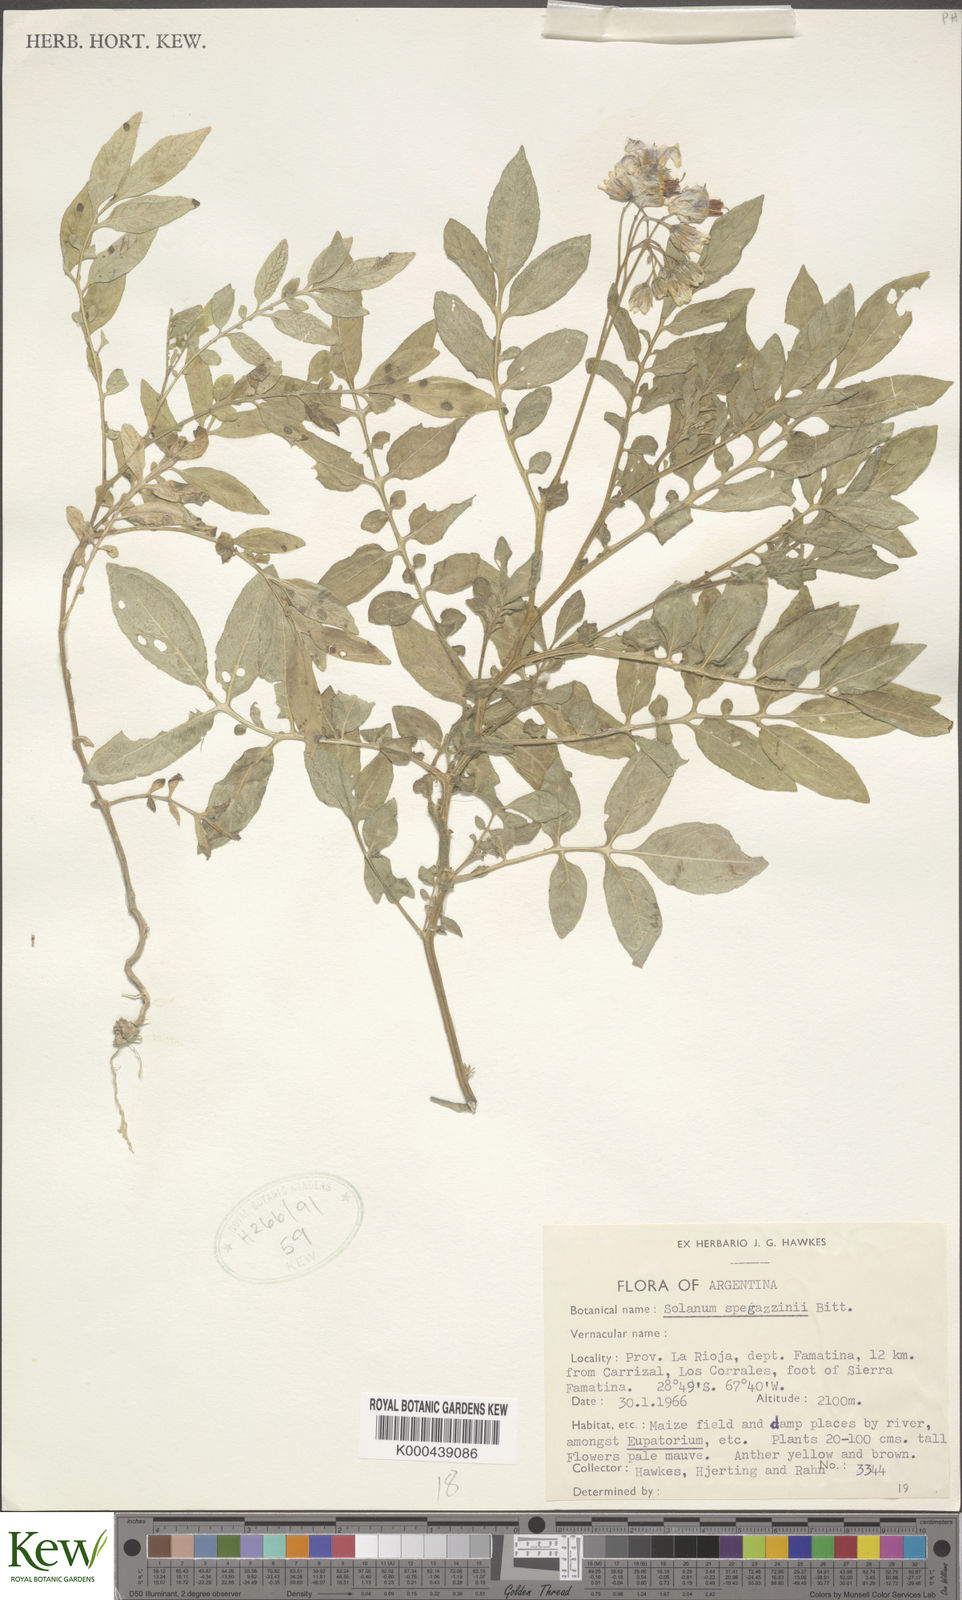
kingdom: Plantae
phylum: Tracheophyta
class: Magnoliopsida
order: Solanales
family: Solanaceae
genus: Solanum
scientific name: Solanum brevicaule
